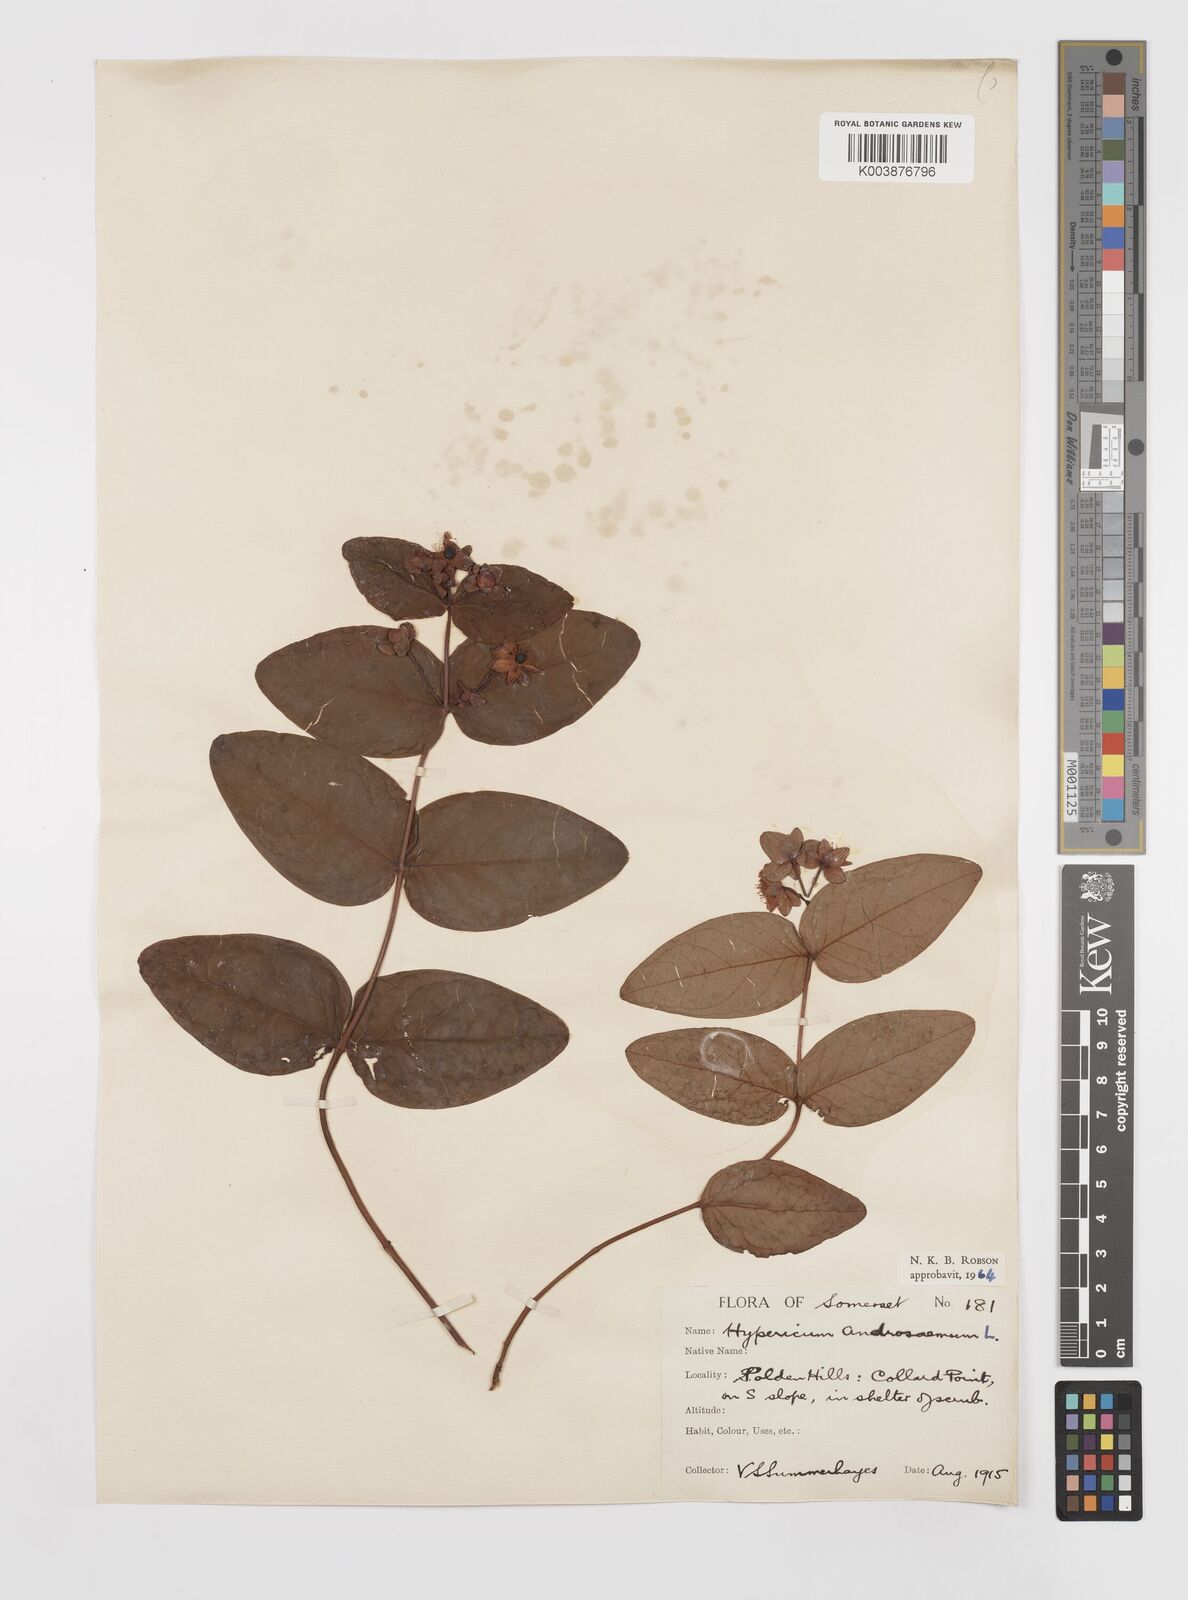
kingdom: Plantae
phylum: Tracheophyta
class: Magnoliopsida
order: Malpighiales
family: Hypericaceae
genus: Hypericum
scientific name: Hypericum androsaemum
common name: Sweet-amber
